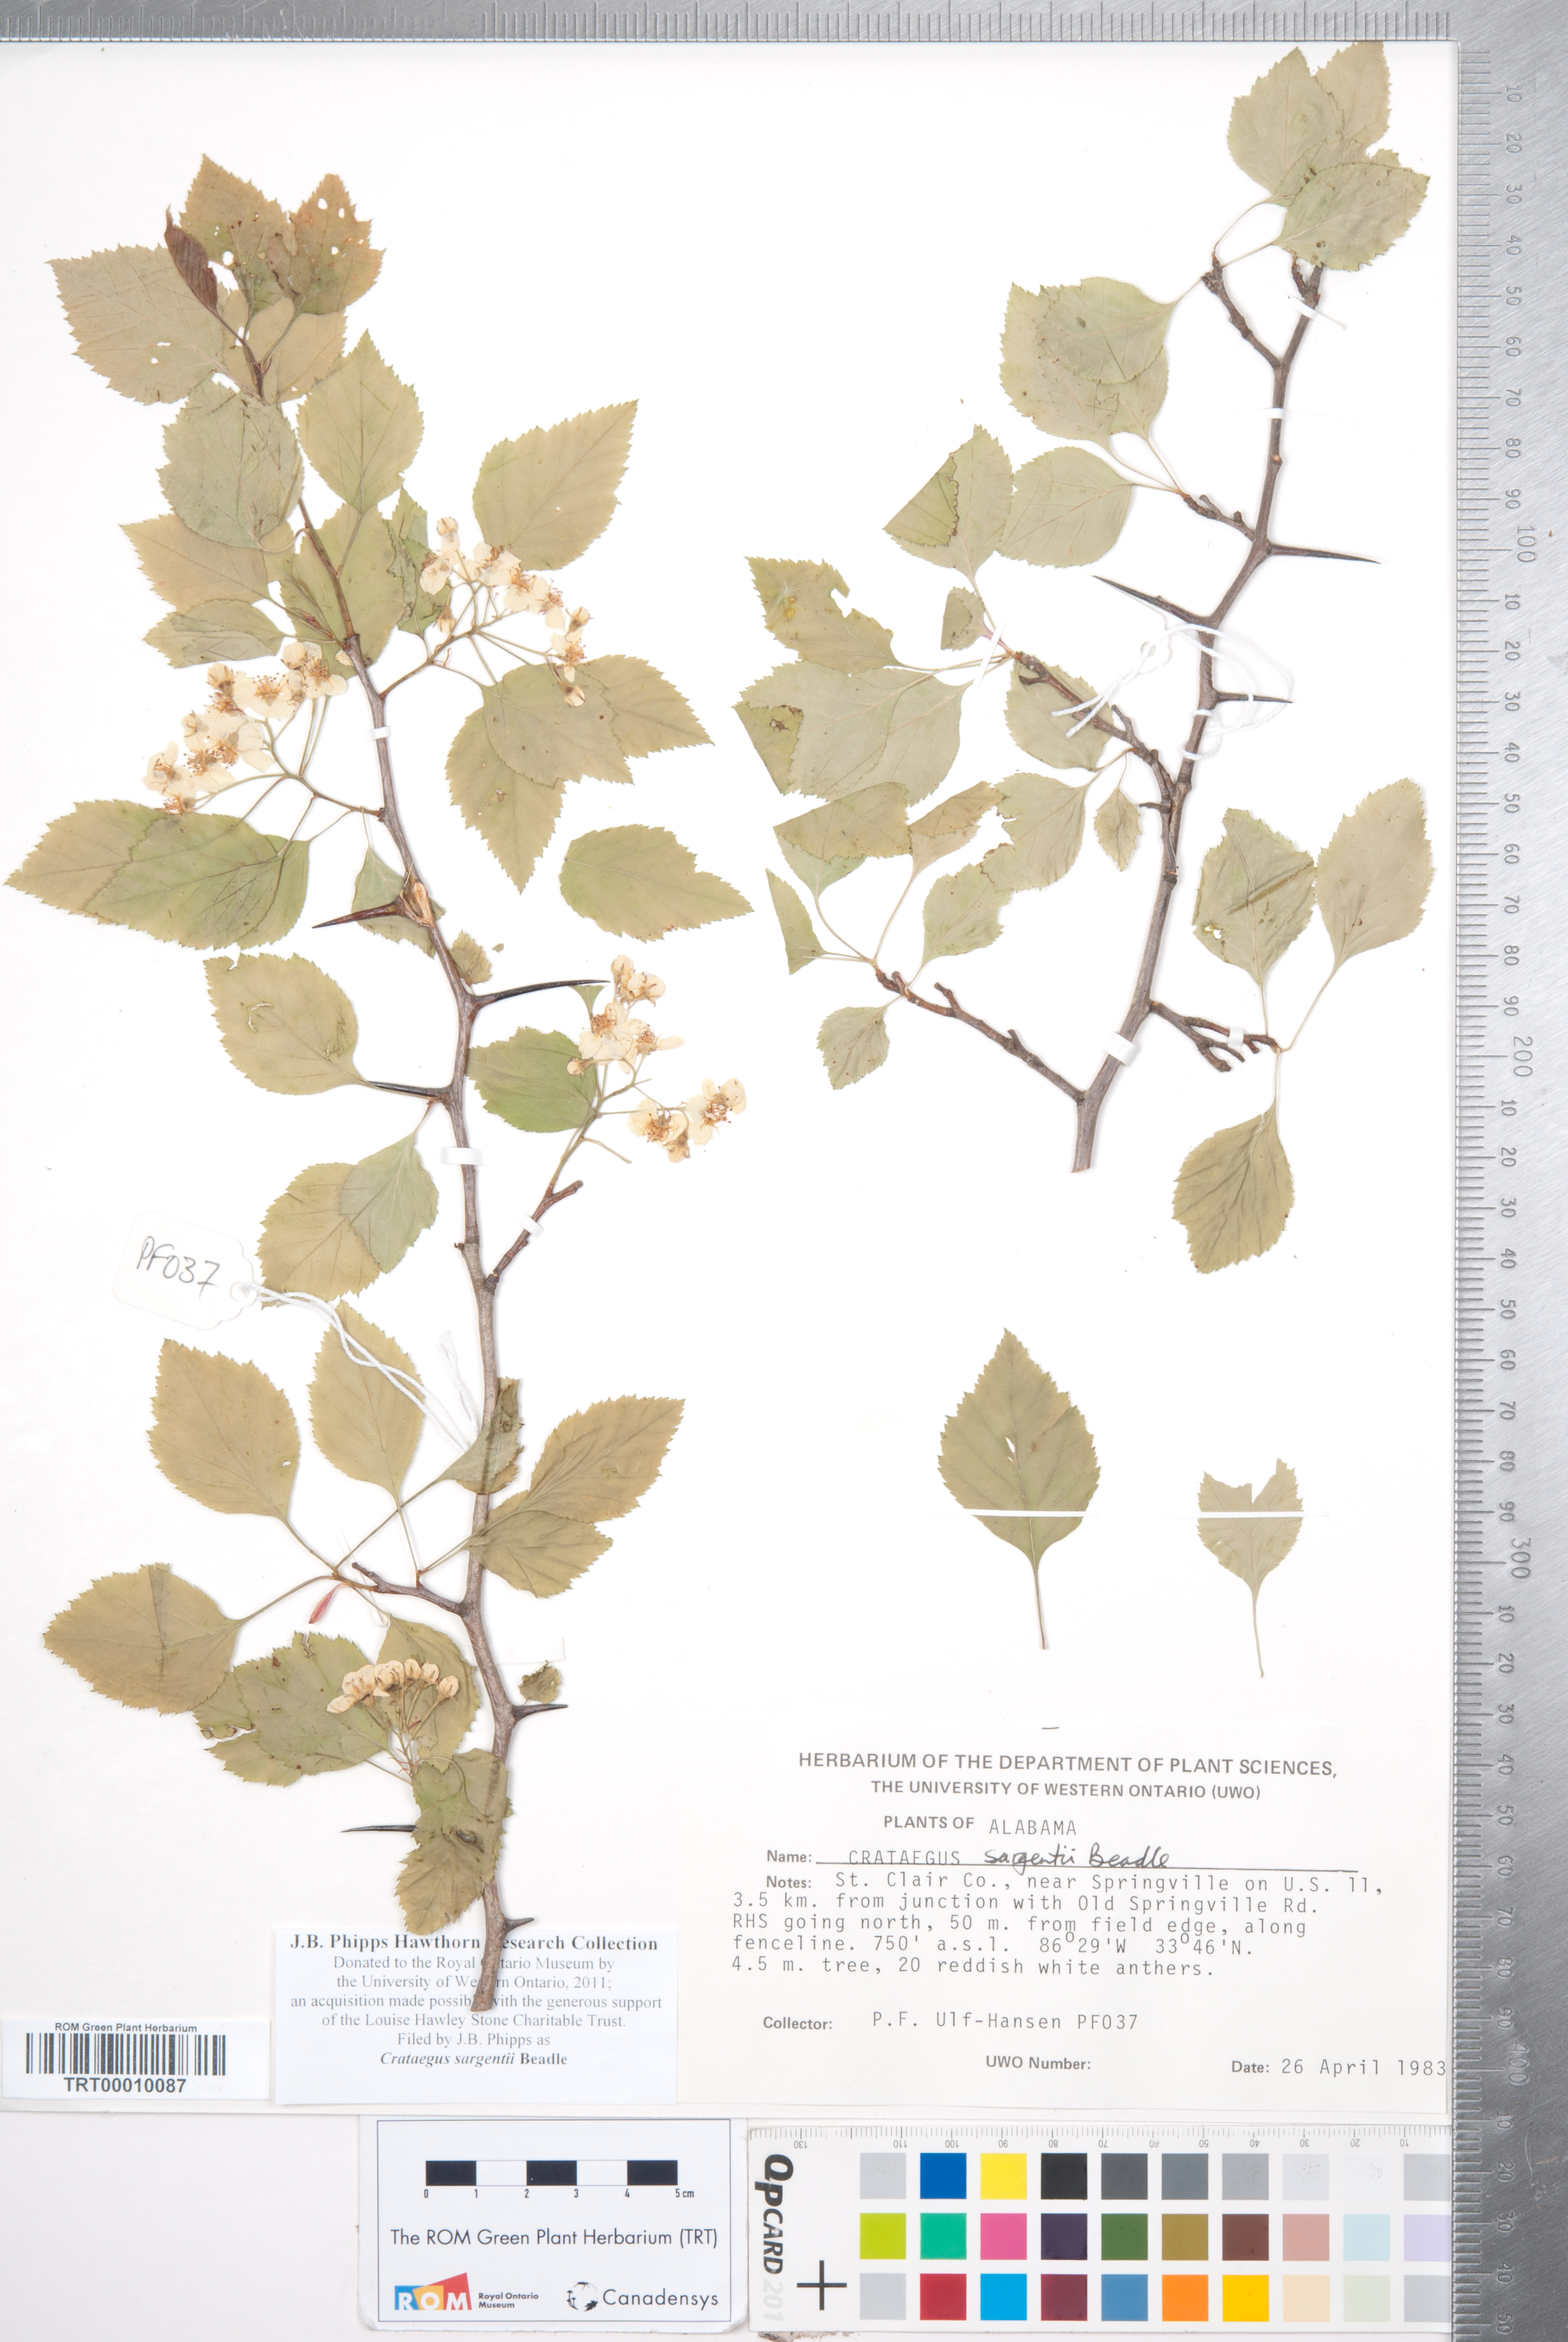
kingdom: Plantae
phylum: Tracheophyta
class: Magnoliopsida
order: Rosales
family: Rosaceae
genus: Crataegus
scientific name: Crataegus sargentii
